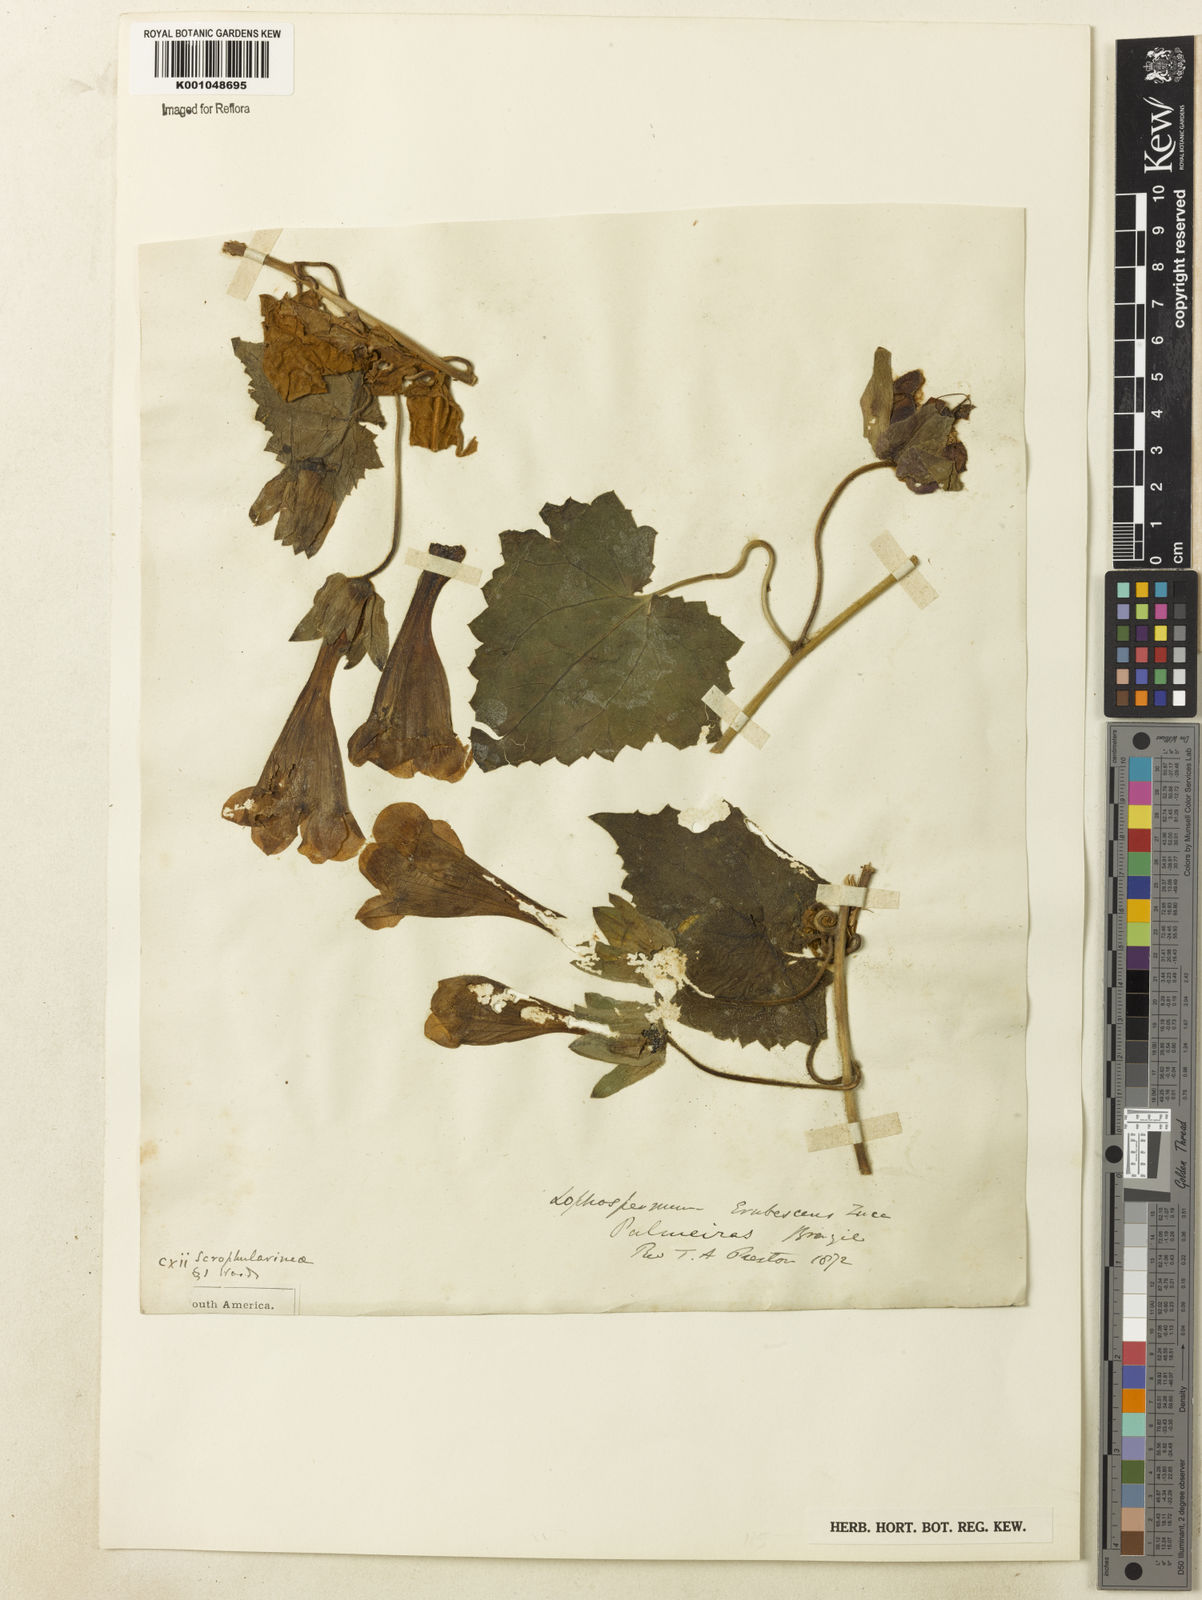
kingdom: Plantae
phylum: Tracheophyta
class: Magnoliopsida
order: Lamiales
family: Plantaginaceae
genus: Lophospermum
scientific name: Lophospermum erubescens
